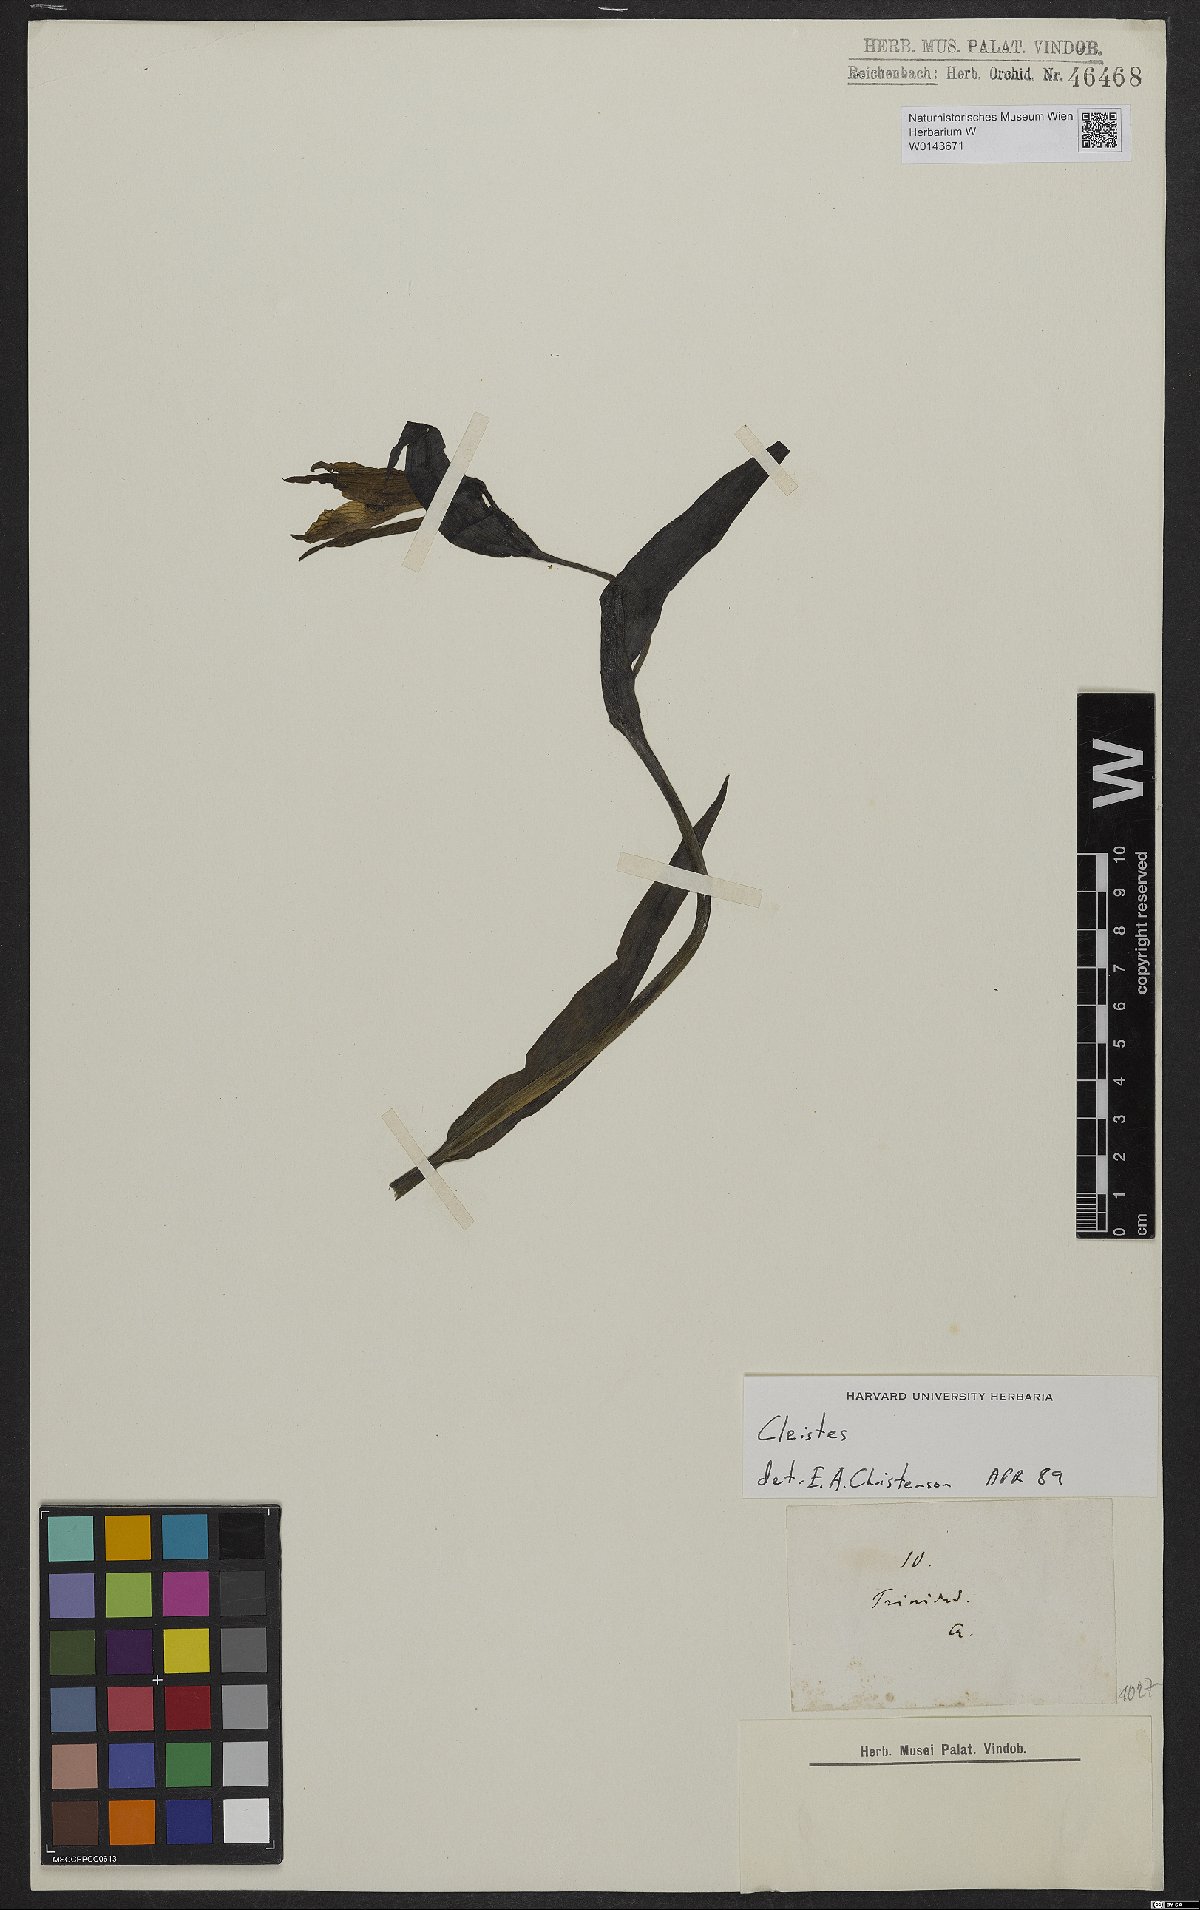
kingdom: Plantae
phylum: Tracheophyta
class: Liliopsida
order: Asparagales
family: Orchidaceae
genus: Cleistes
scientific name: Cleistes
